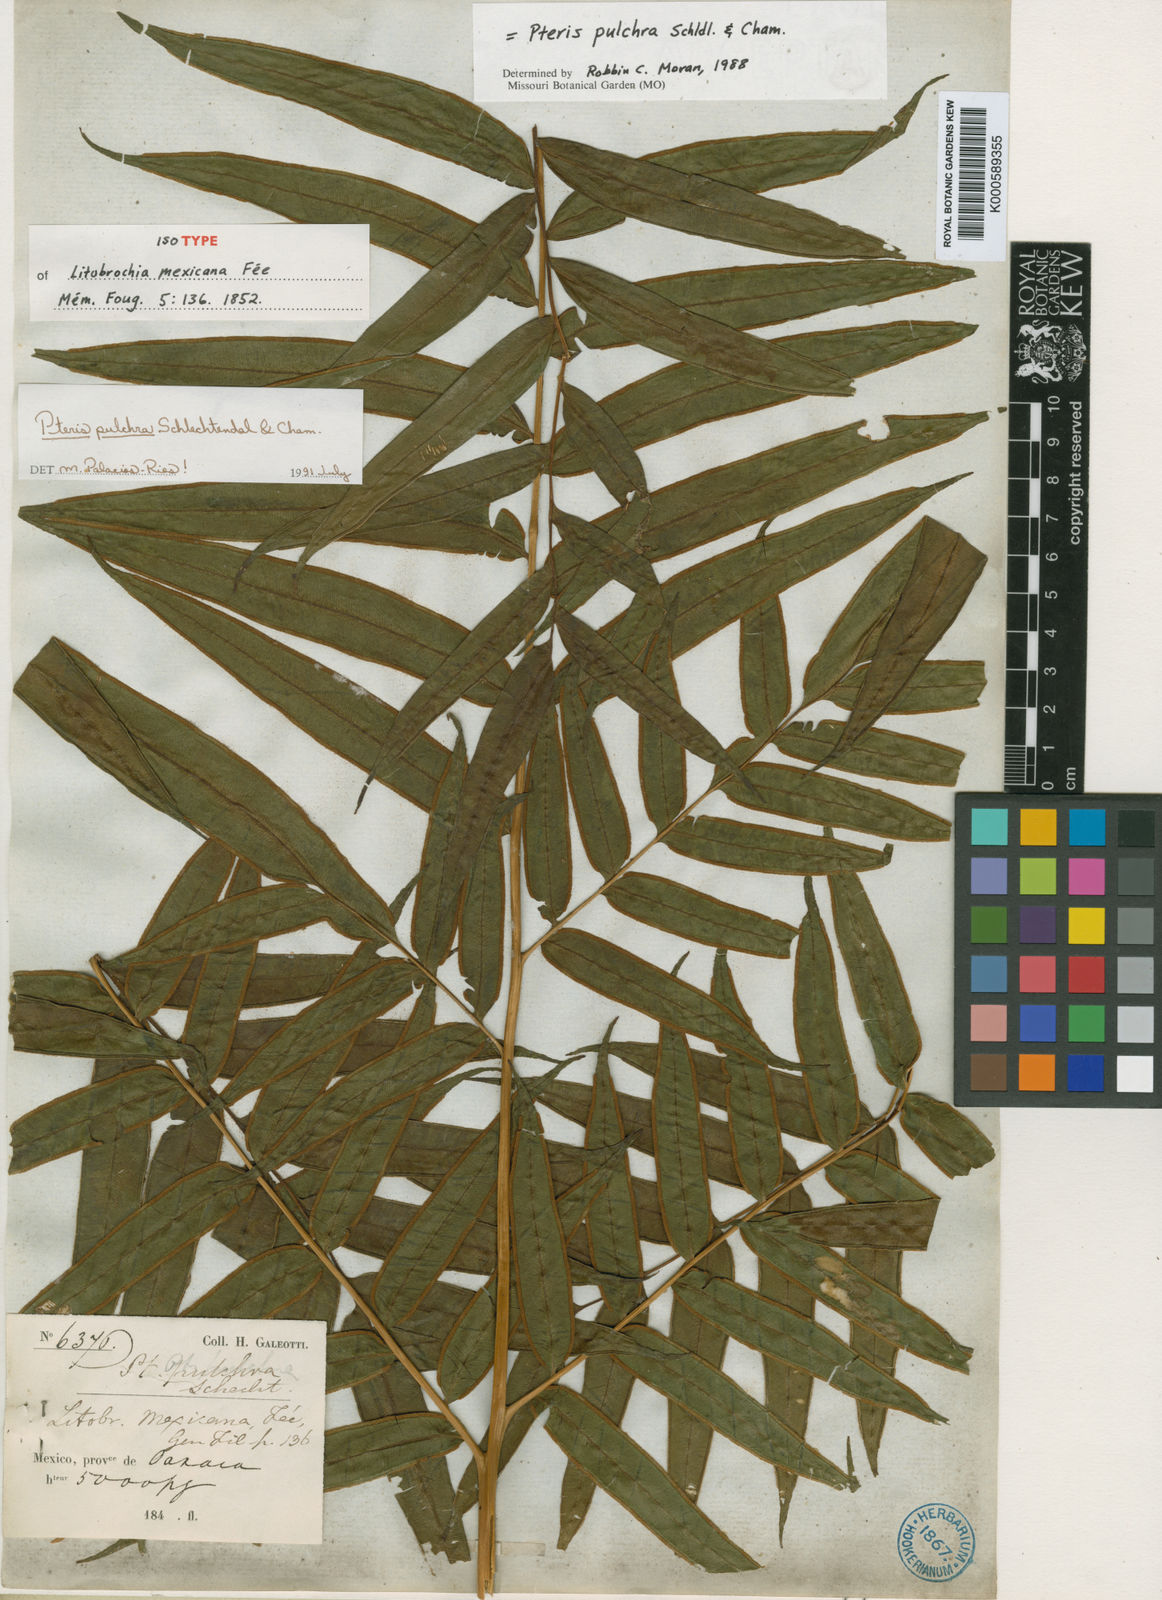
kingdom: Plantae
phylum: Tracheophyta
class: Polypodiopsida
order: Polypodiales
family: Pteridaceae
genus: Pteris
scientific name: Pteris
